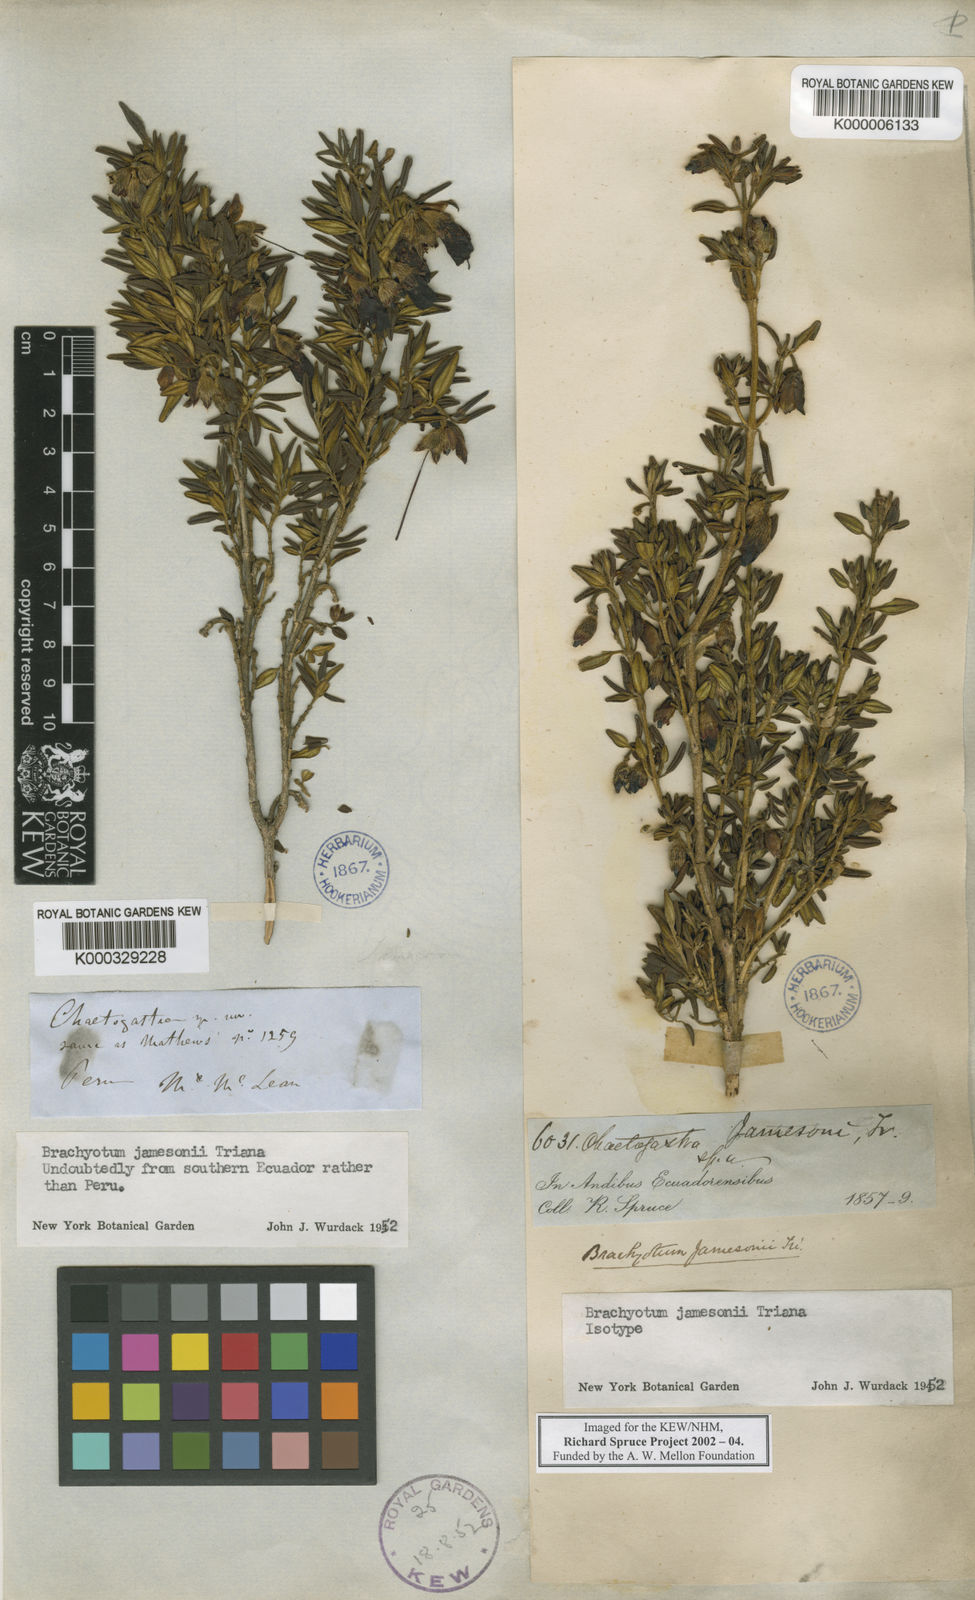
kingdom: Plantae
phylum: Tracheophyta
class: Magnoliopsida
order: Myrtales
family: Melastomataceae
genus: Brachyotum
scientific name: Brachyotum jamesonii
